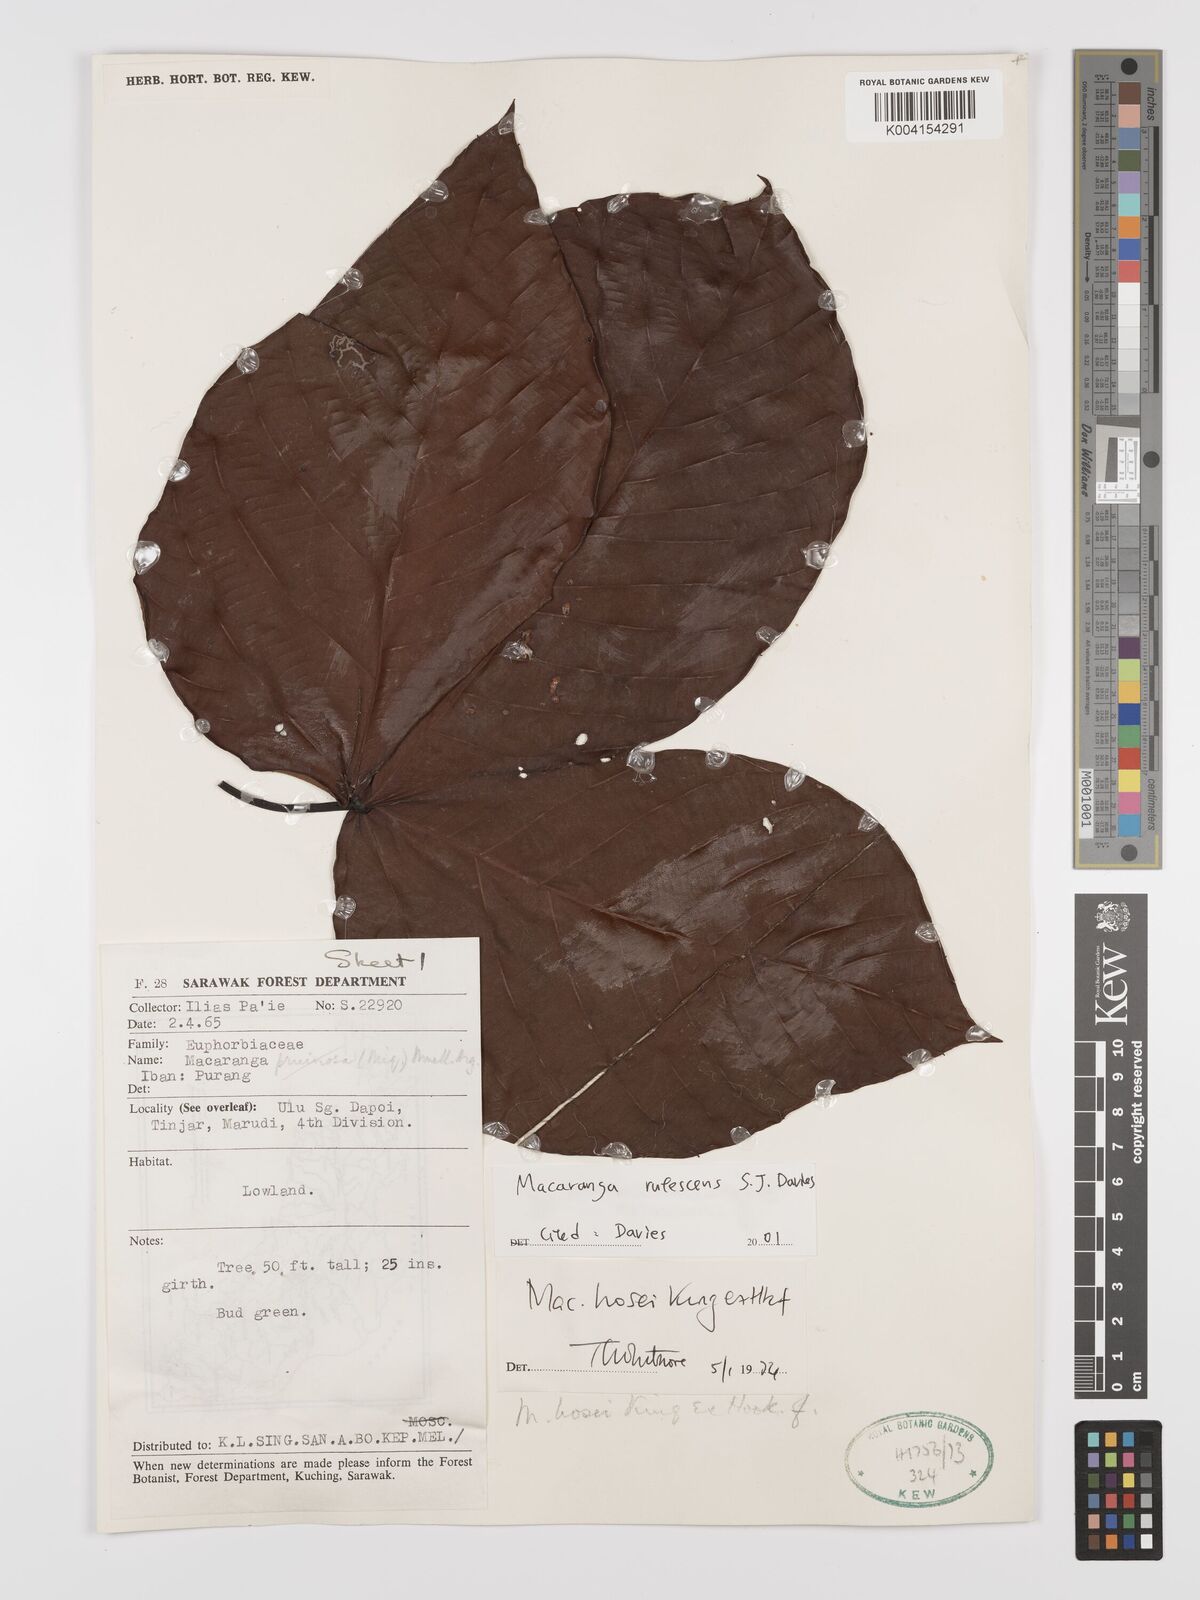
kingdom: Plantae
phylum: Tracheophyta
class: Magnoliopsida
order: Malpighiales
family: Euphorbiaceae
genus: Macaranga
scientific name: Macaranga rufescens
